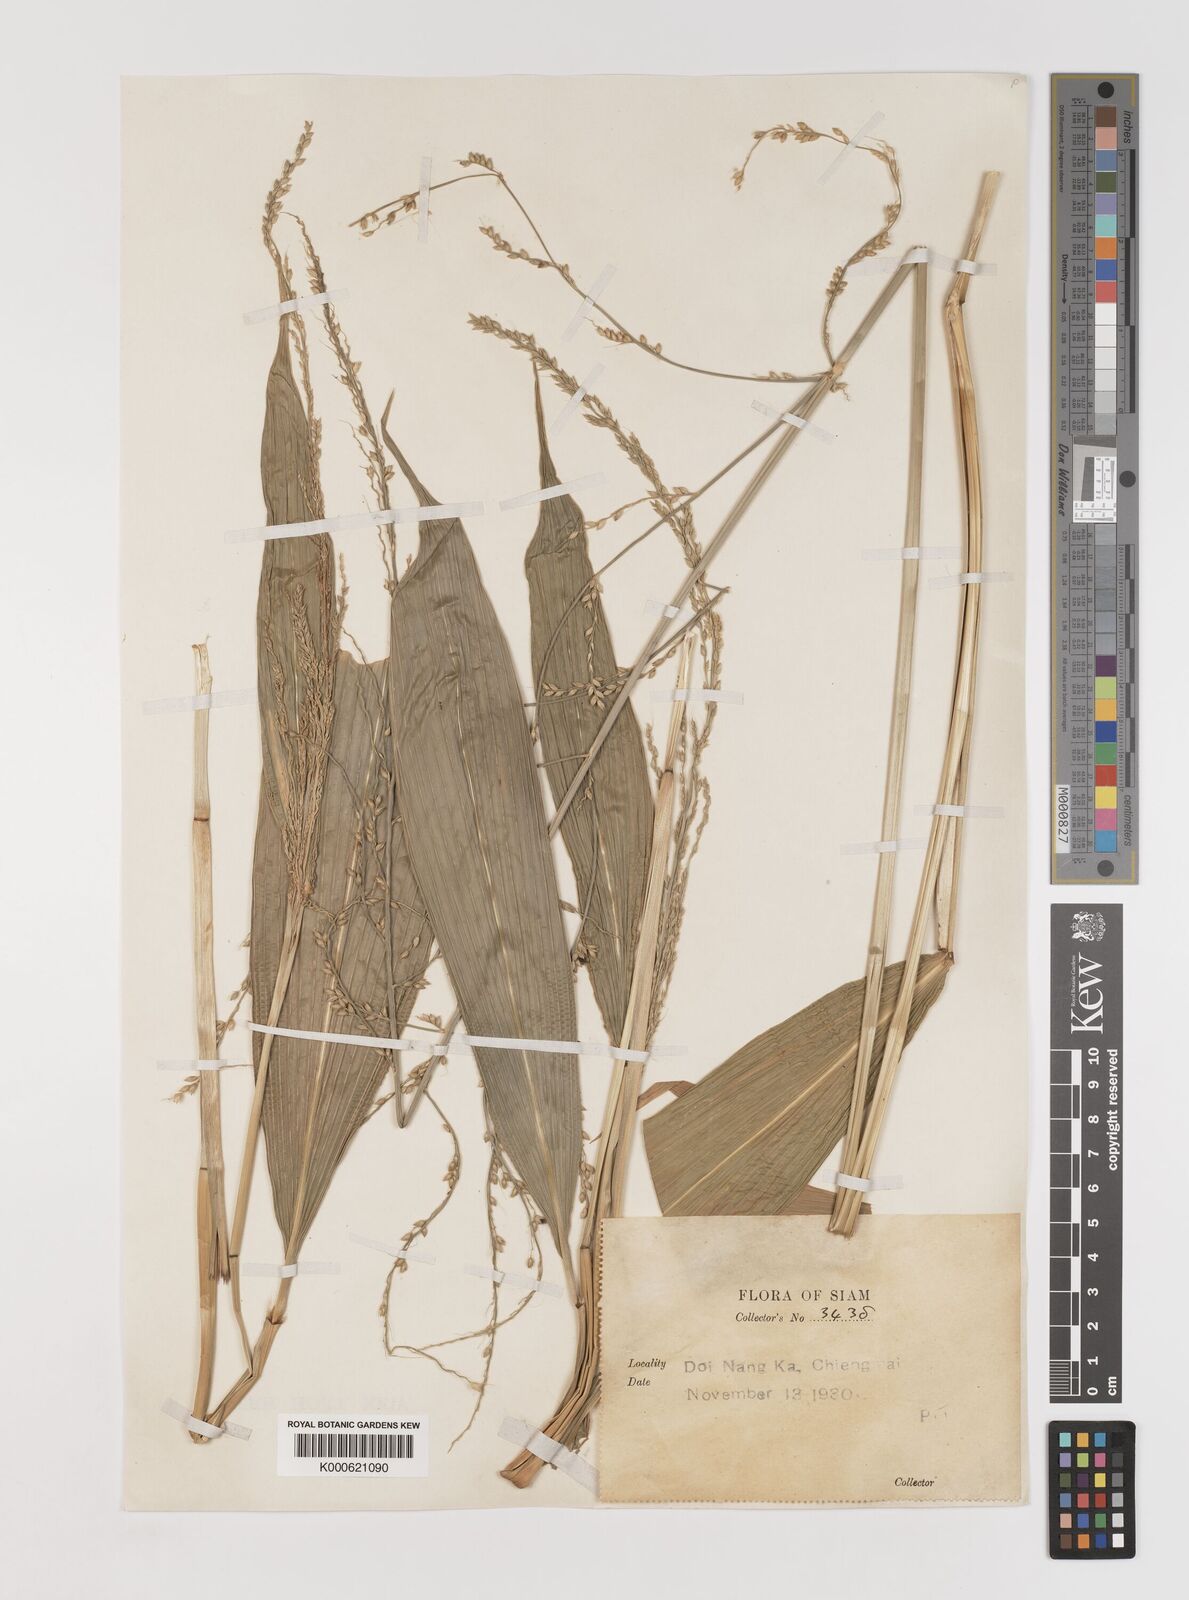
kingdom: Plantae
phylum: Tracheophyta
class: Liliopsida
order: Poales
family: Poaceae
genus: Setaria
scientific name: Setaria palmifolia
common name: Broadleaved bristlegrass
